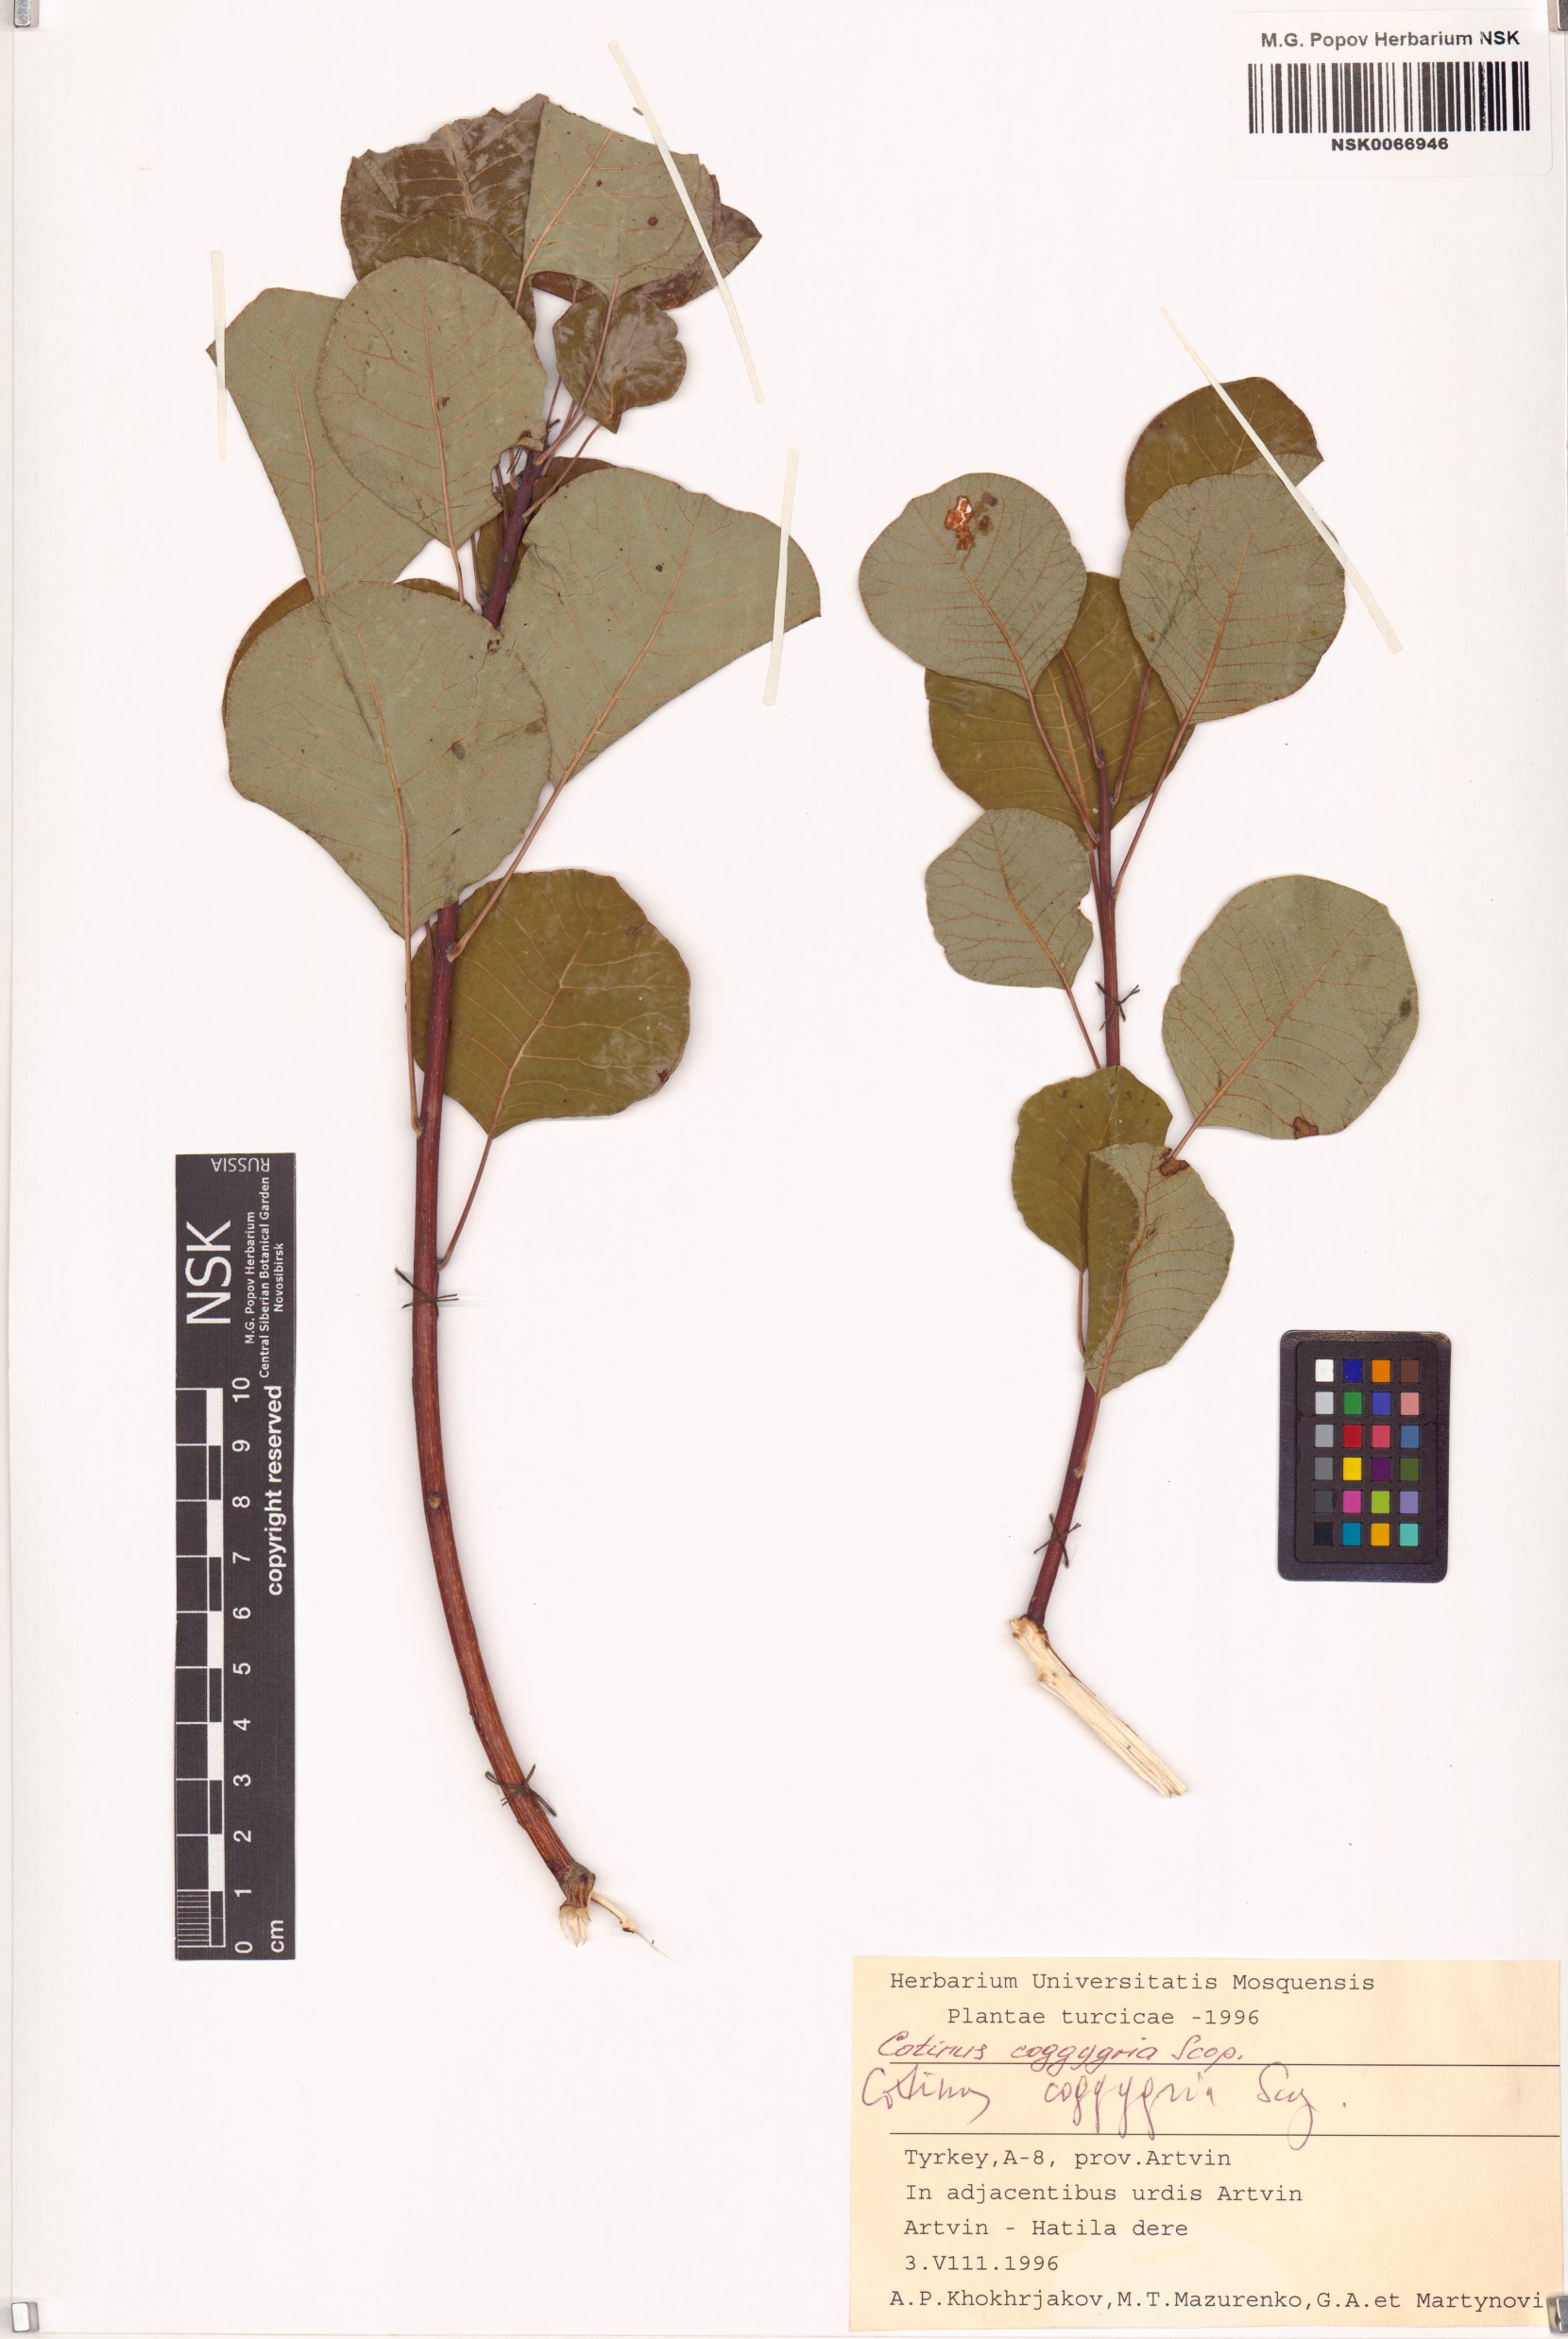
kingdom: Plantae
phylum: Tracheophyta
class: Magnoliopsida
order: Sapindales
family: Anacardiaceae
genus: Cotinus
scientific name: Cotinus coggygria
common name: Smoke-tree
